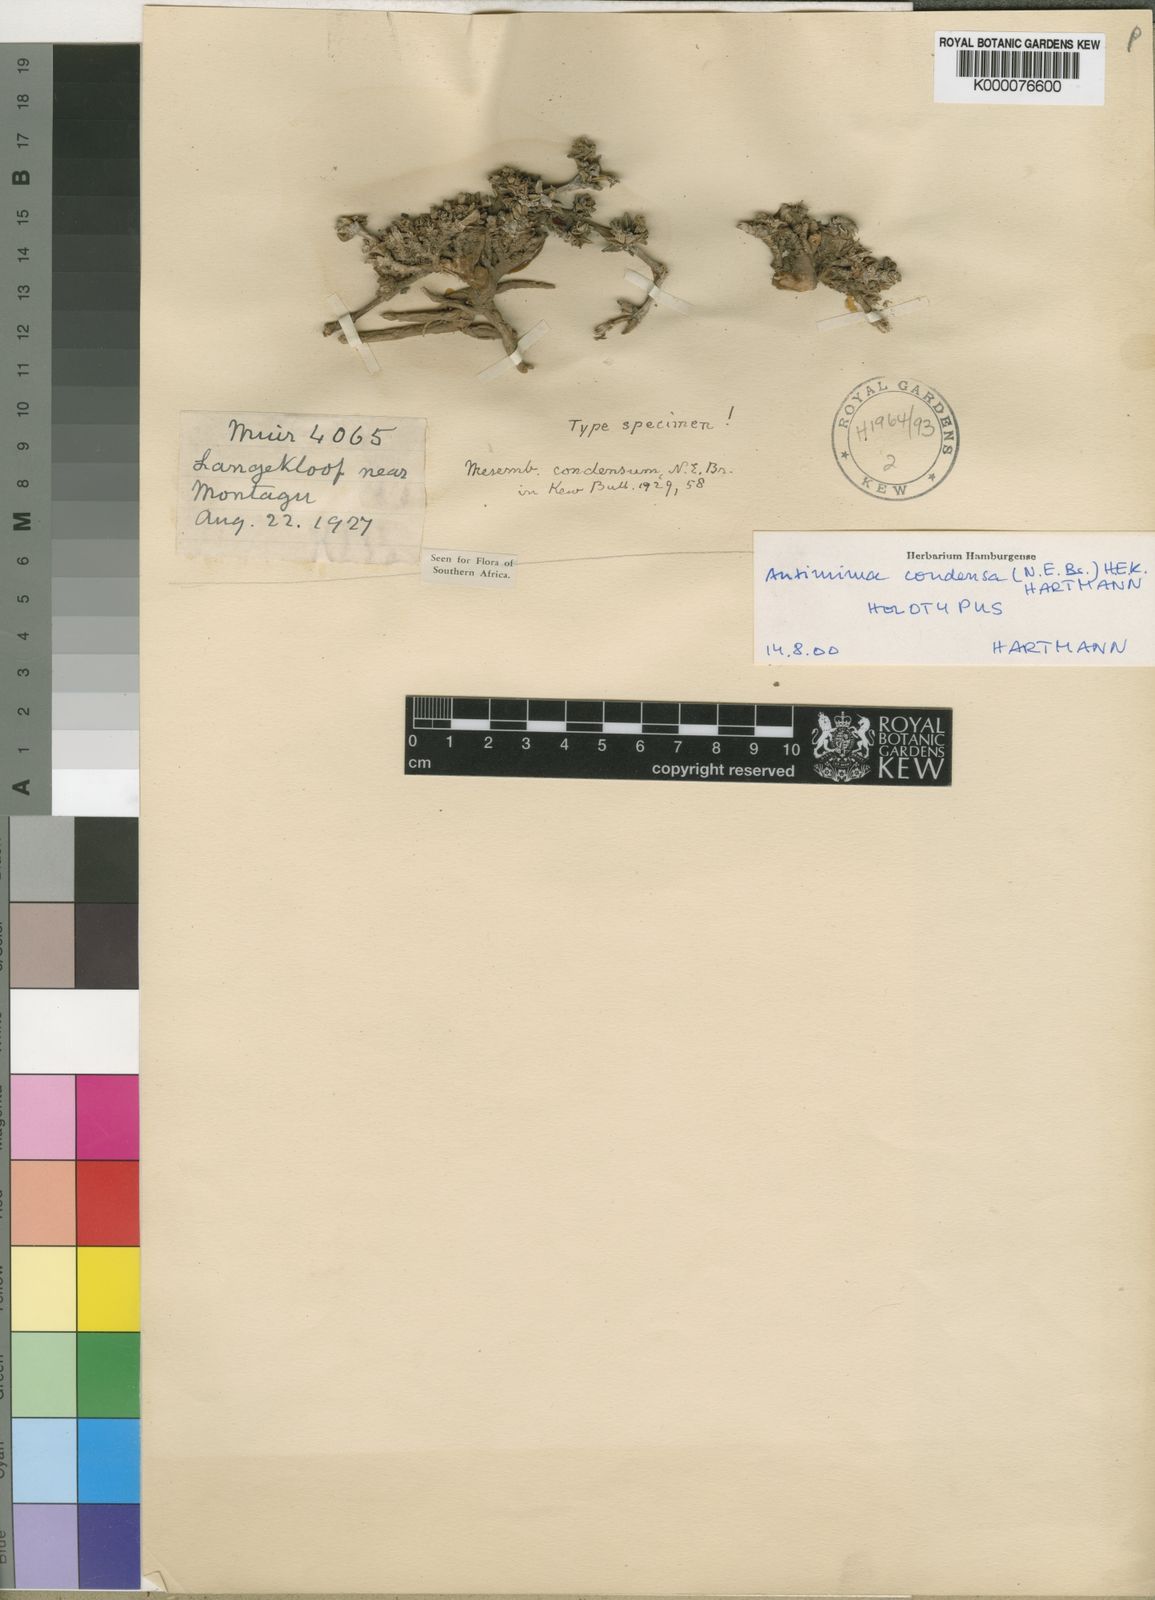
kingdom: Plantae
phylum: Tracheophyta
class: Magnoliopsida
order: Caryophyllales
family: Aizoaceae
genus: Antimima
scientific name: Antimima condensa
